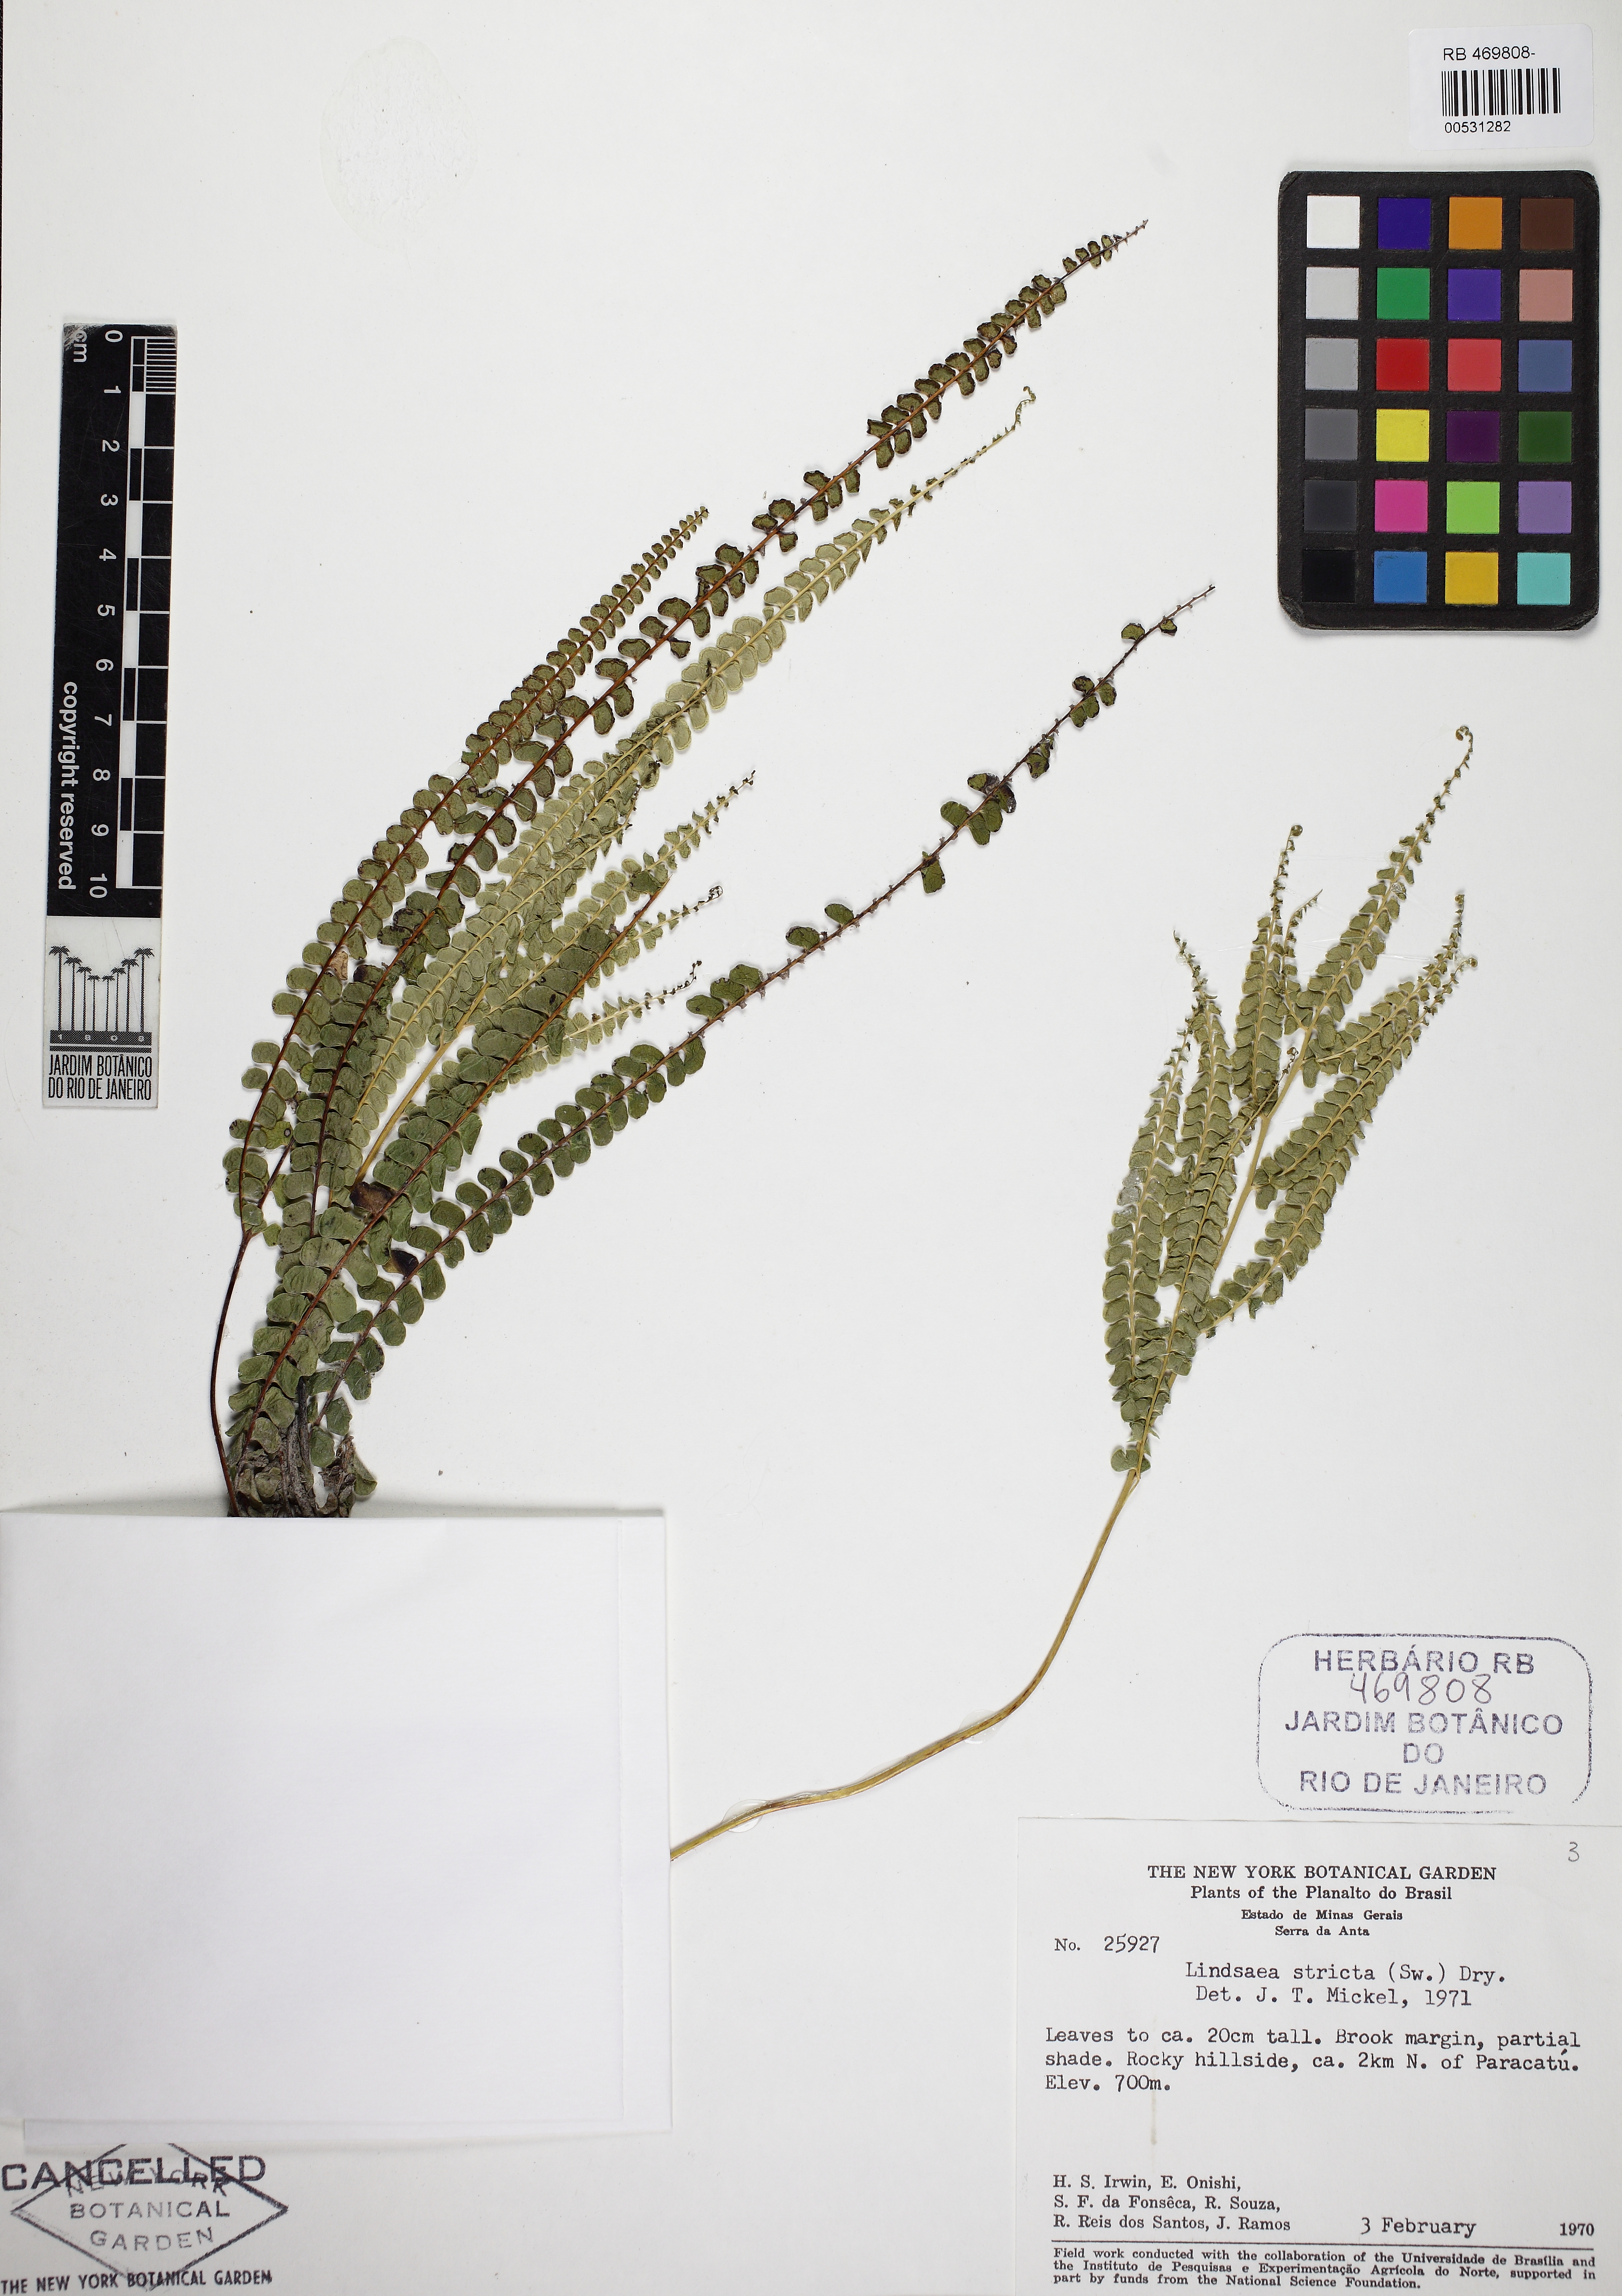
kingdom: Plantae
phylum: Tracheophyta
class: Polypodiopsida
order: Polypodiales
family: Lindsaeaceae
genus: Lindsaea
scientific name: Lindsaea stricta
